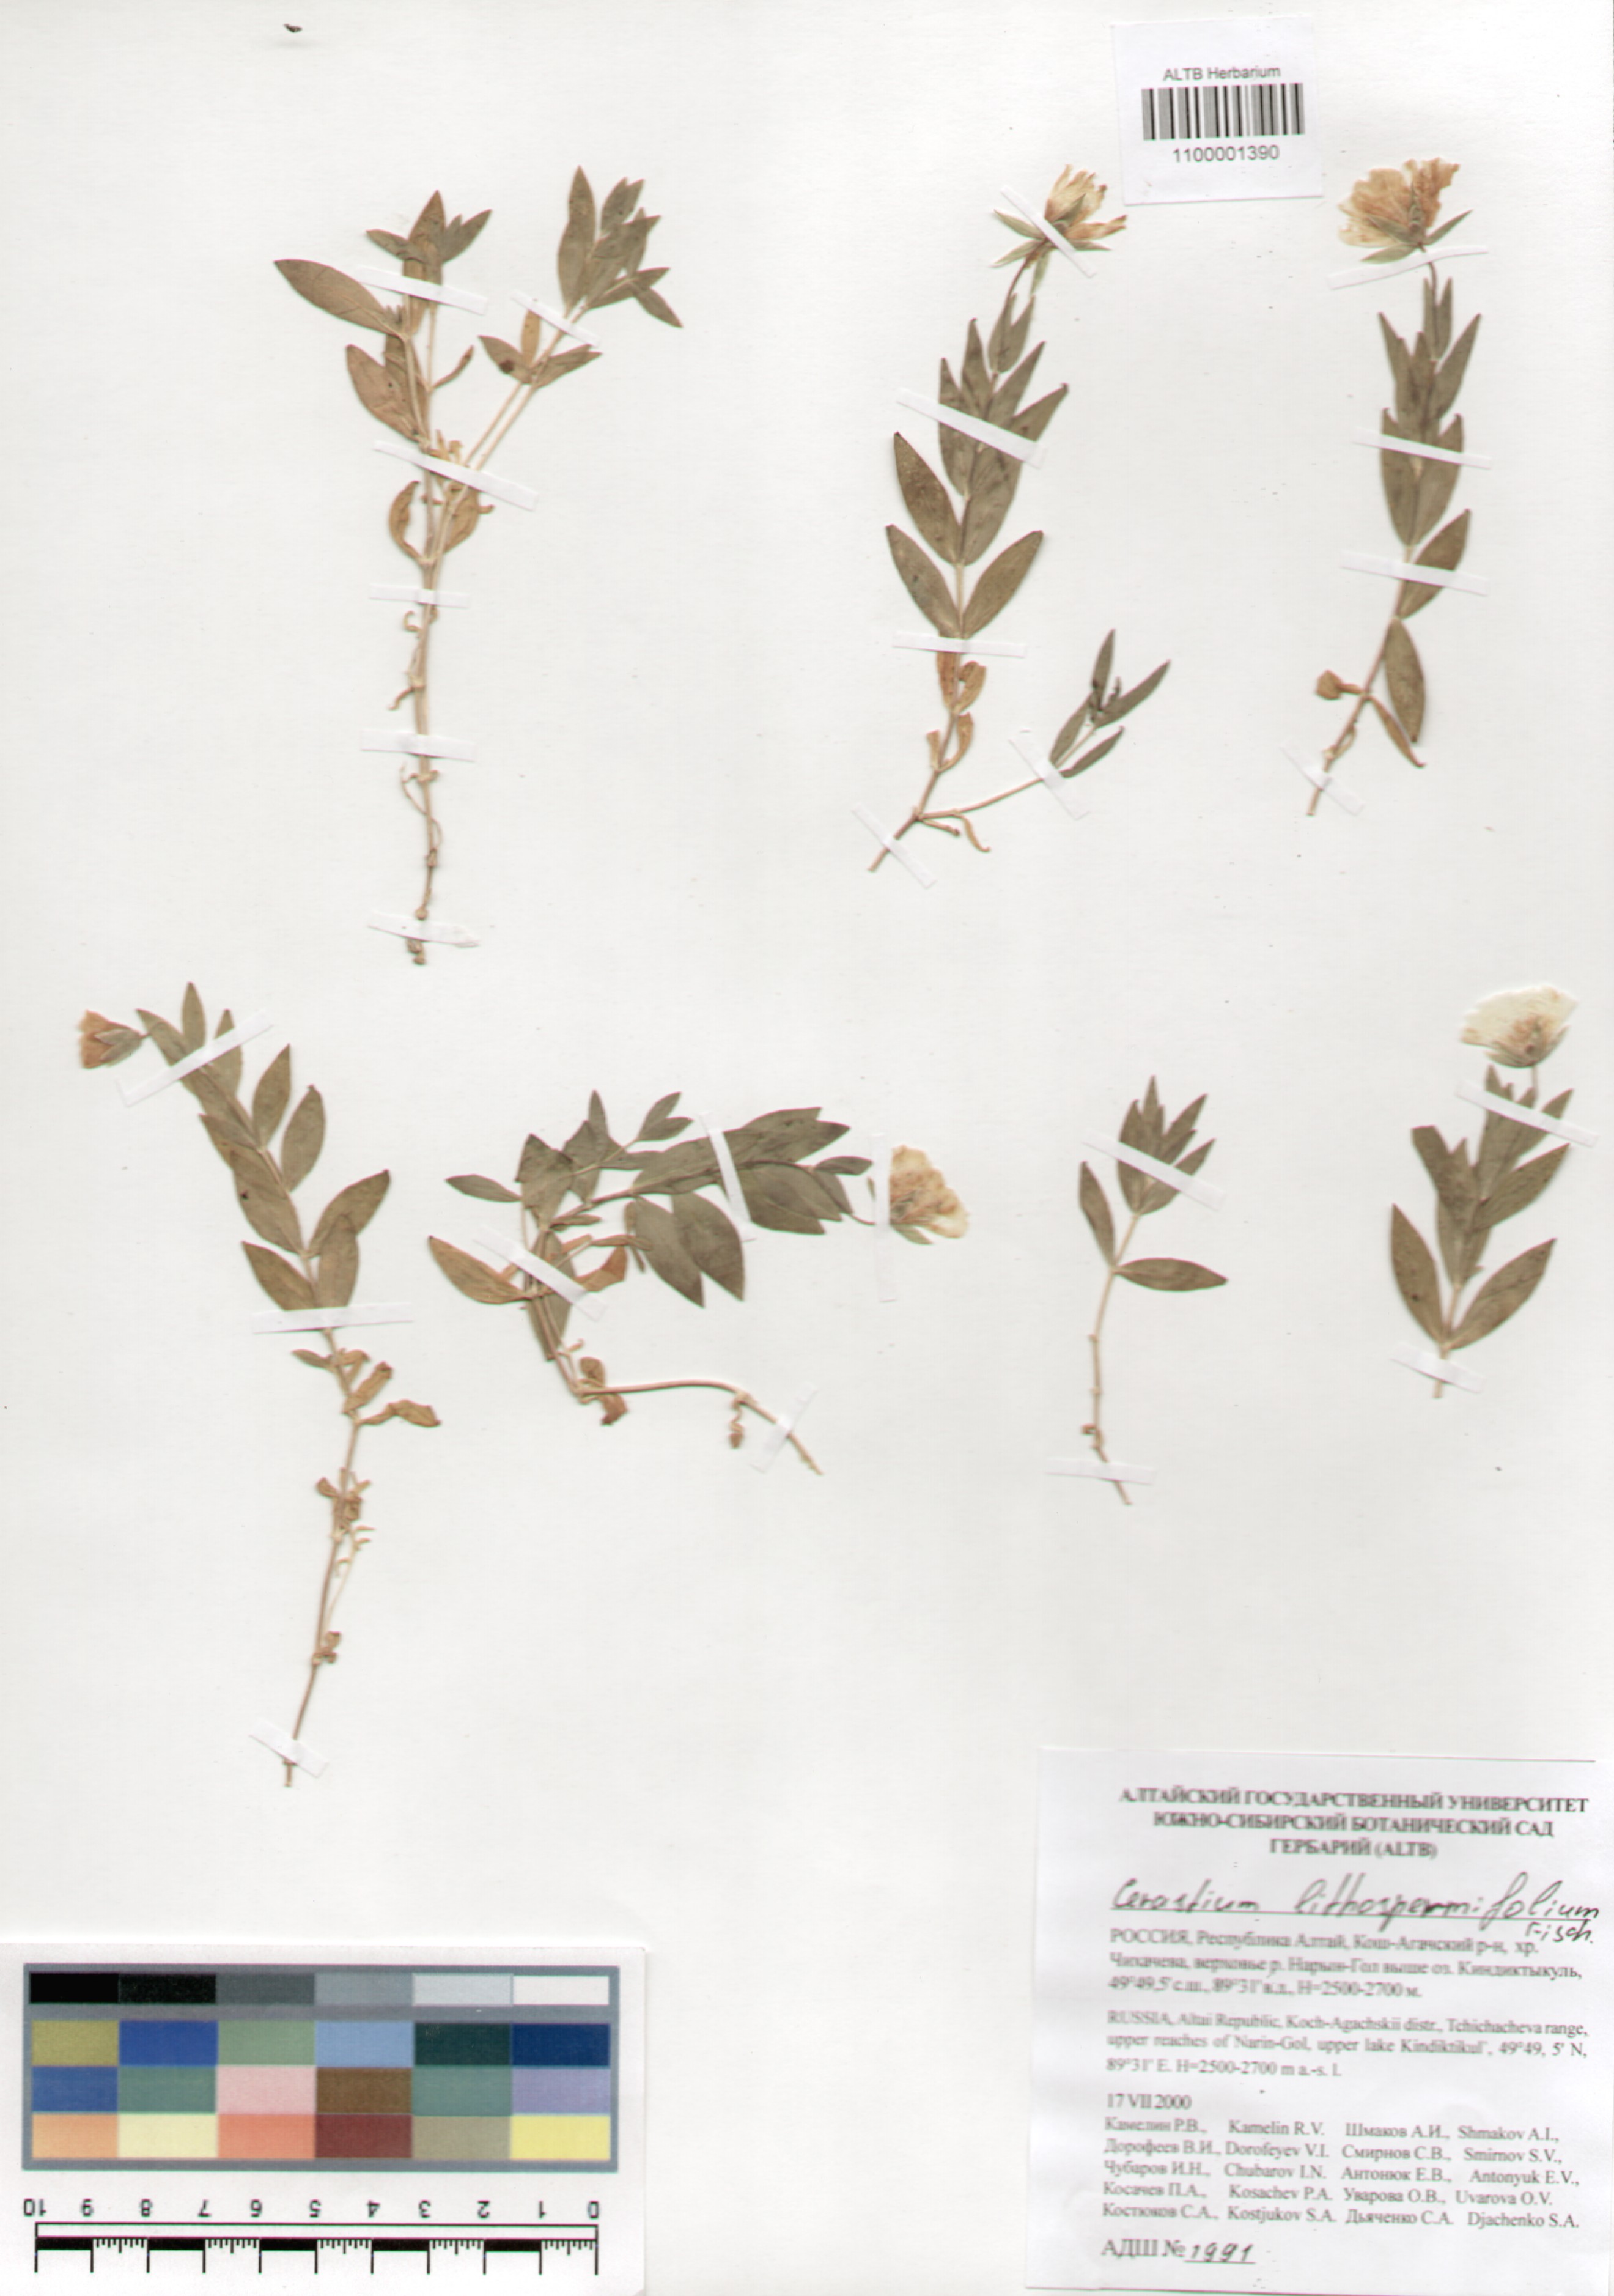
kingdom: Plantae
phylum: Tracheophyta
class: Magnoliopsida
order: Caryophyllales
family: Caryophyllaceae
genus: Cerastium
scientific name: Cerastium lithospermifolium
